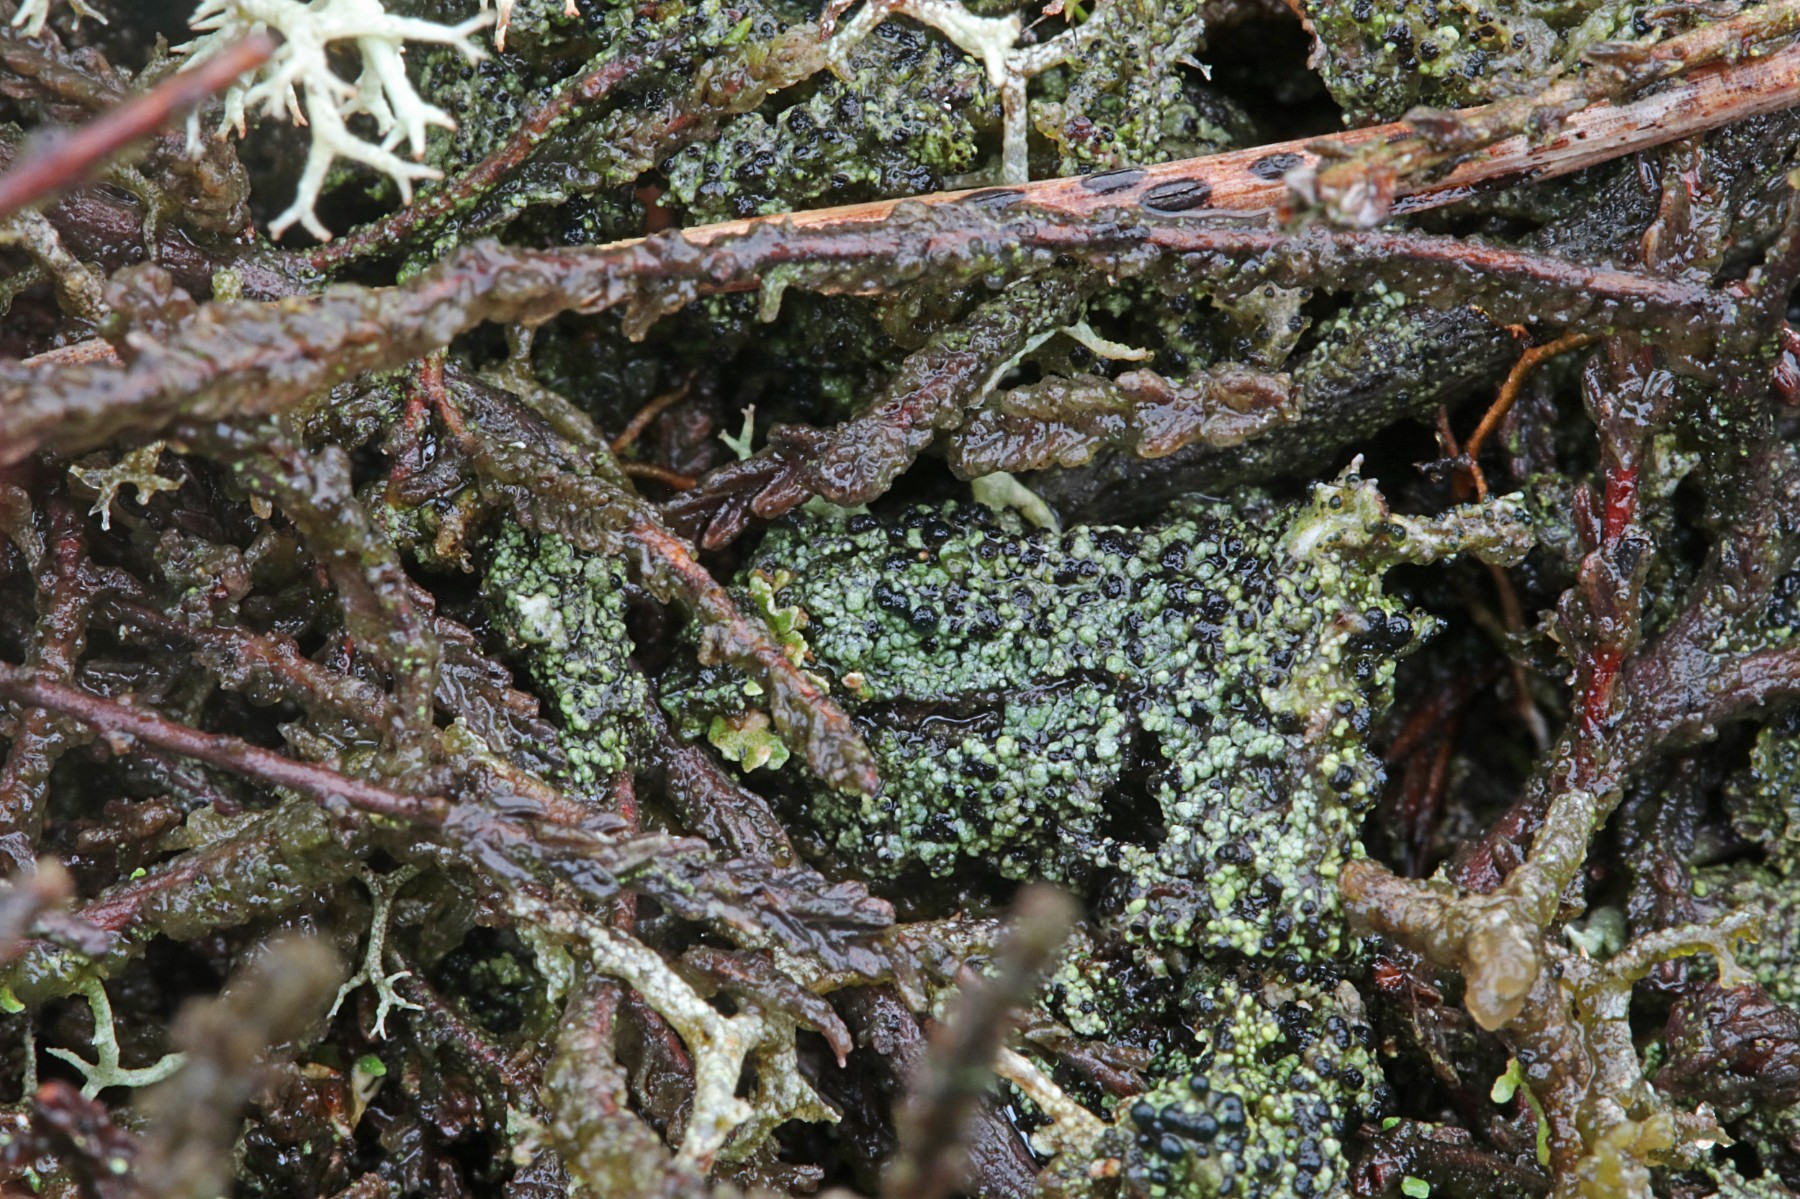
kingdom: Fungi
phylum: Ascomycota
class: Lecanoromycetes
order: Lecanorales
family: Byssolomataceae
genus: Micarea
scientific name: Micarea lignaria
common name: tørve-knaplav
